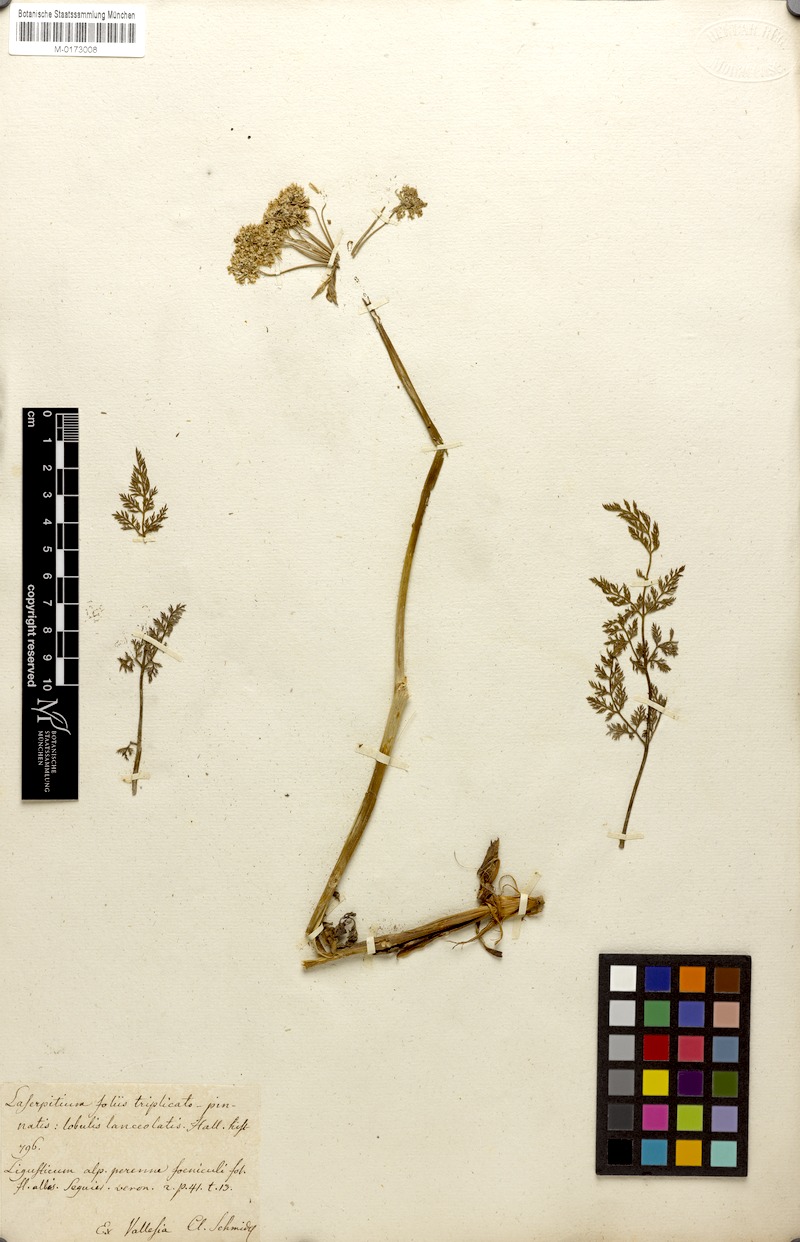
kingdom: Plantae
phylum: Tracheophyta
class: Magnoliopsida
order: Apiales
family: Apiaceae
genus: Laserpitium
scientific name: Laserpitium halleri
